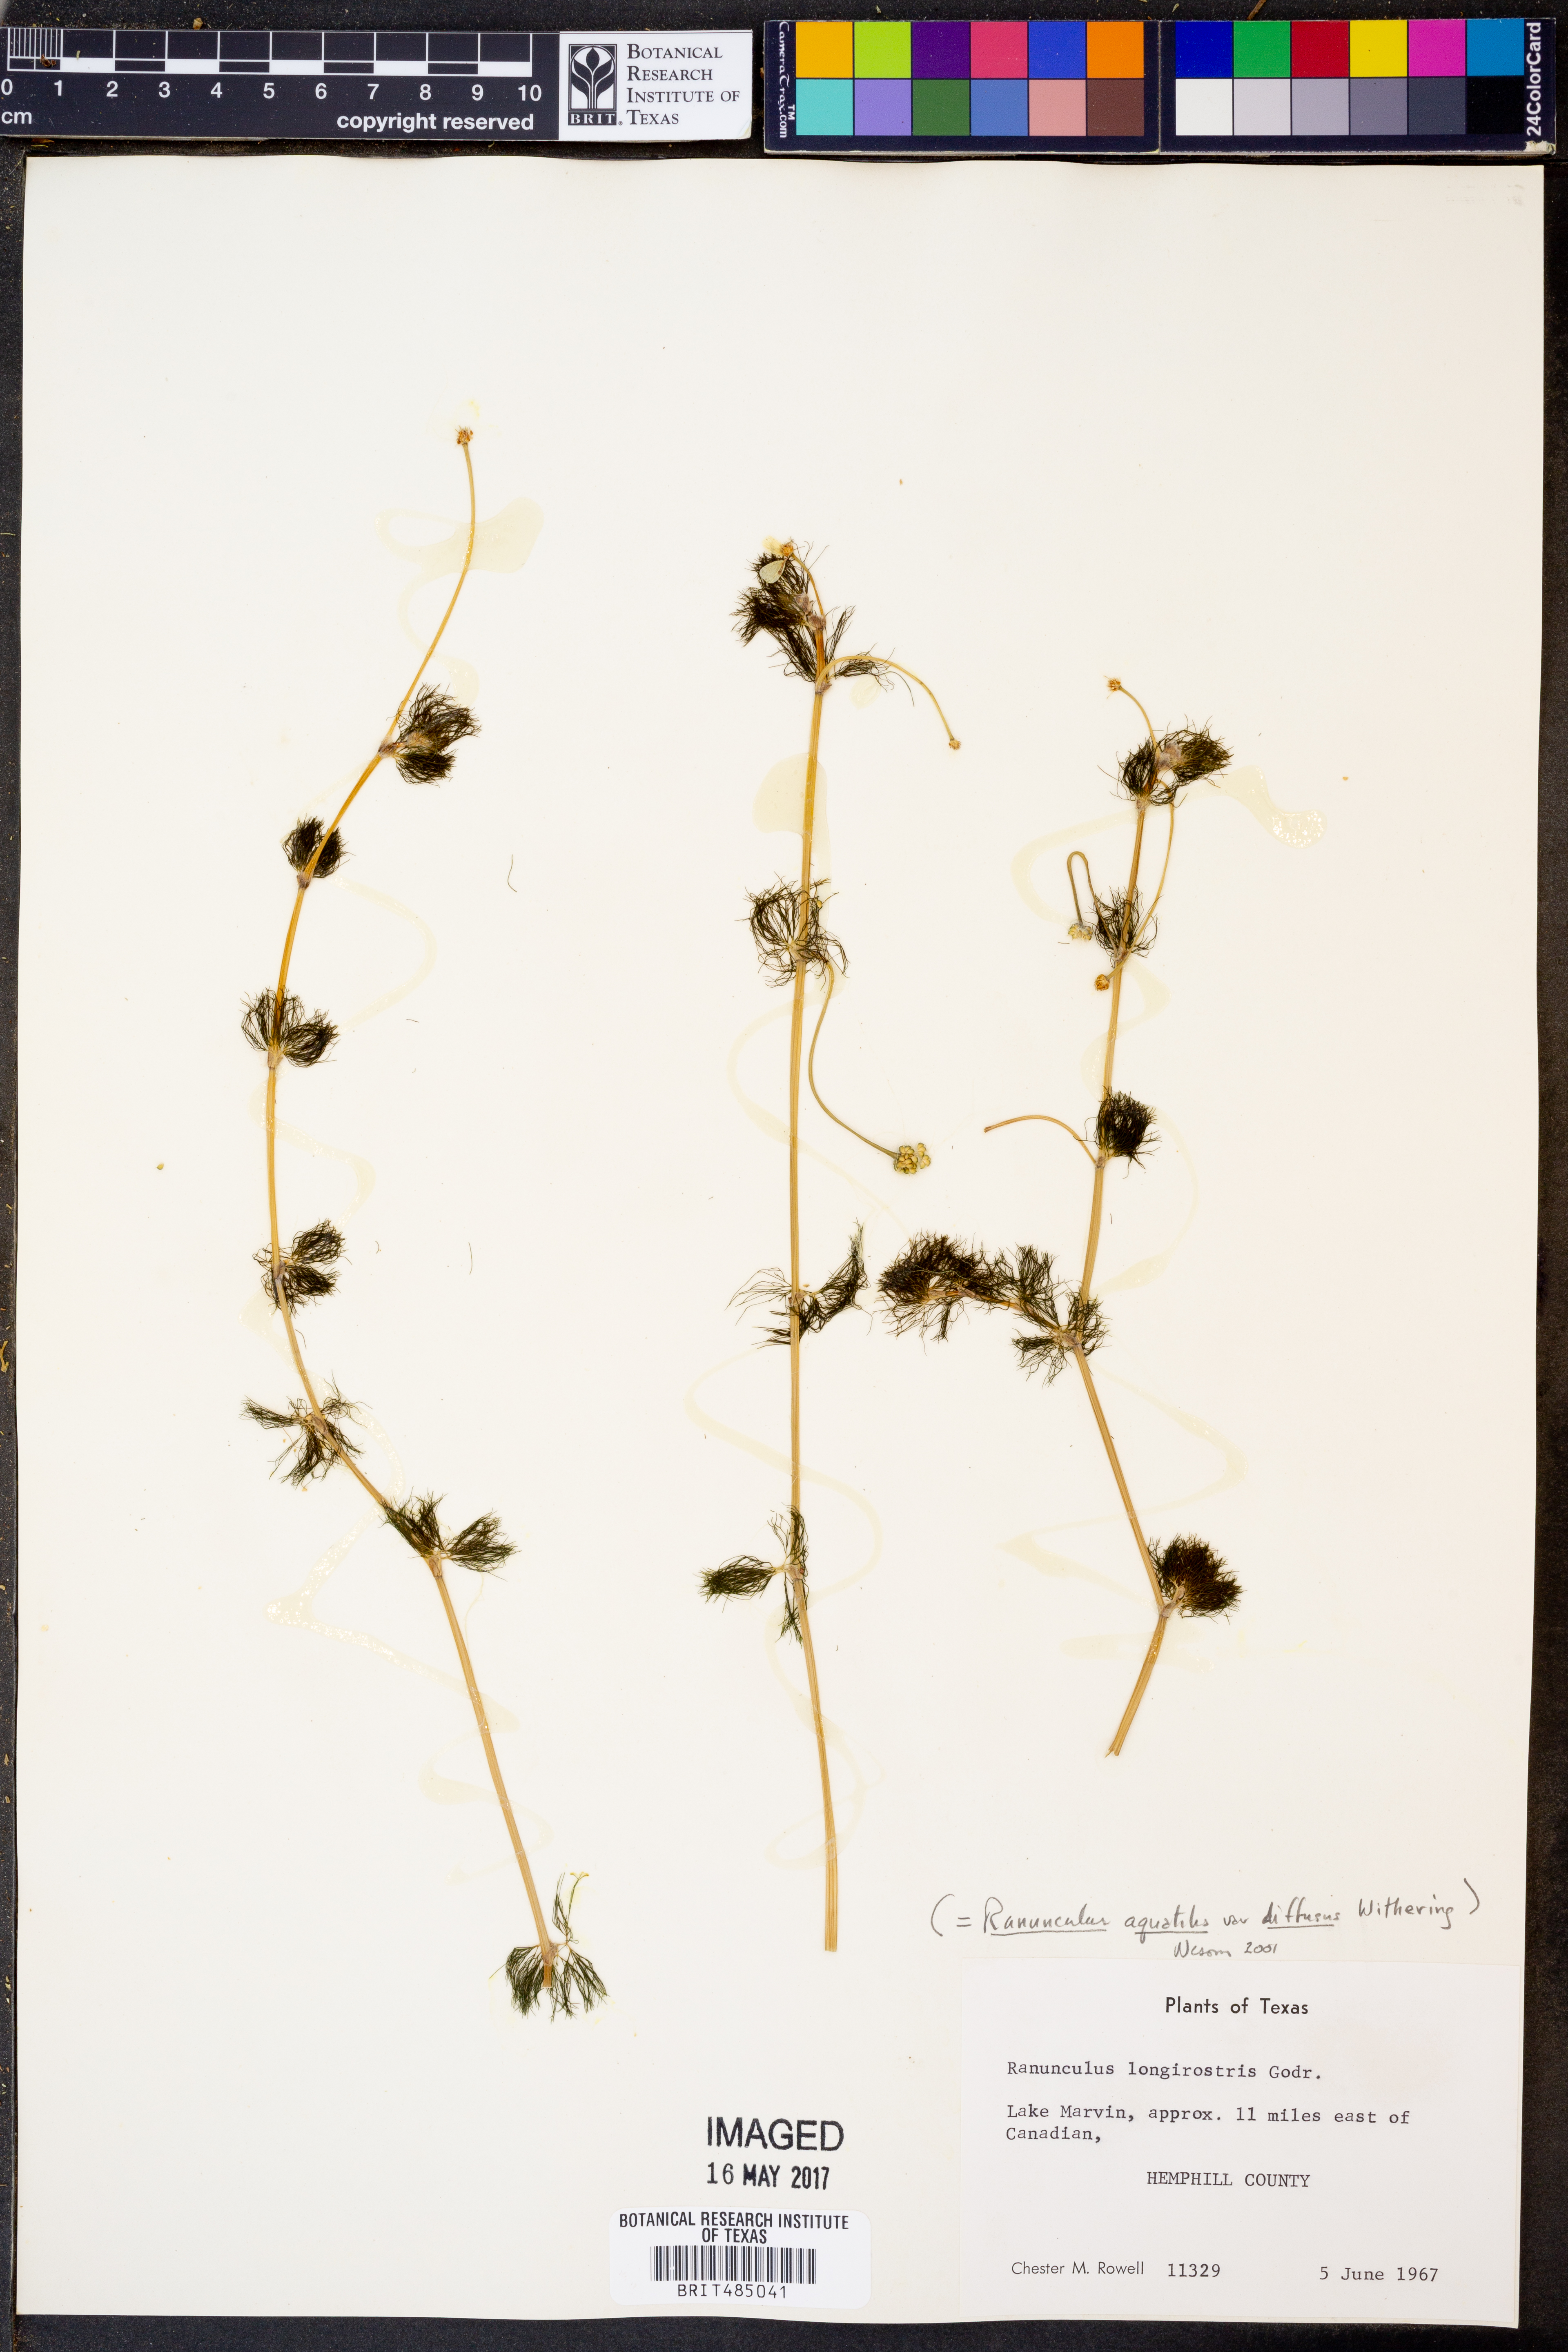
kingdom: Plantae
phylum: Tracheophyta
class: Magnoliopsida
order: Ranunculales
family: Ranunculaceae
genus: Ranunculus
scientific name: Ranunculus trichophyllus
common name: Thread-leaved water-crowfoot
